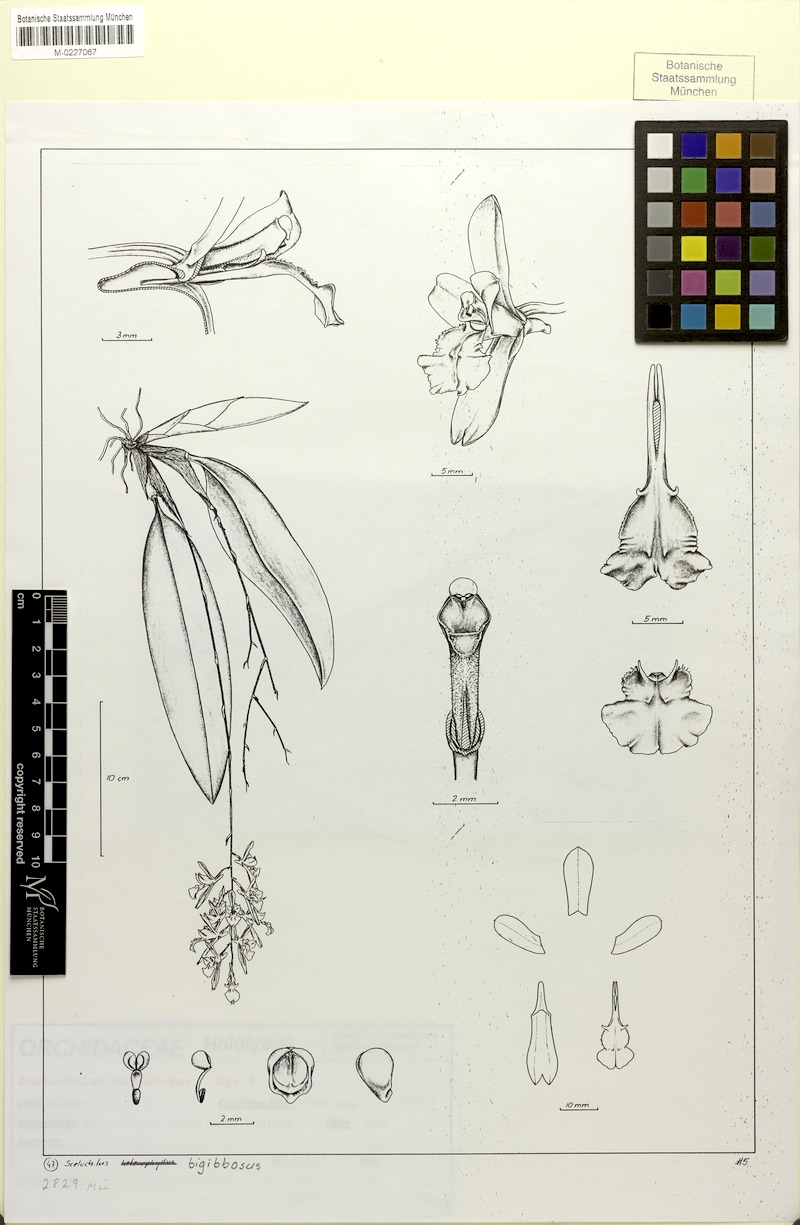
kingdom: Plantae
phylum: Tracheophyta
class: Liliopsida
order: Asparagales
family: Orchidaceae
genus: Comparettia
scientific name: Comparettia bigibbosa
